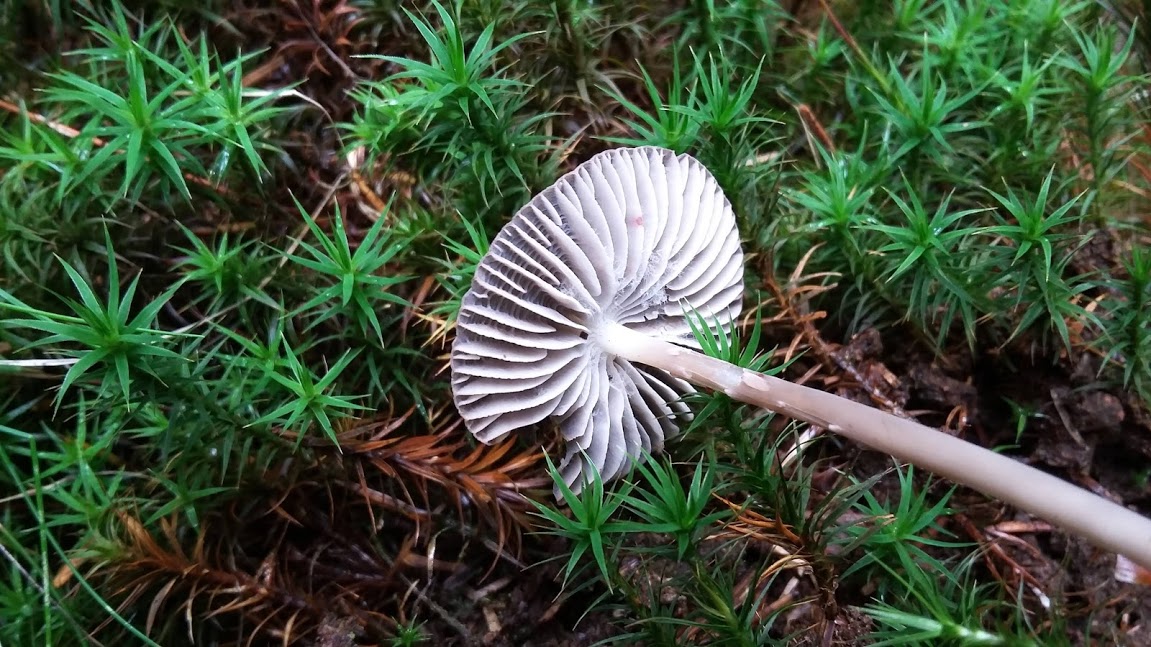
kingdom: Fungi
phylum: Basidiomycota
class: Agaricomycetes
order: Agaricales
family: Mycenaceae
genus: Mycena
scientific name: Mycena megaspora
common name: brusk-huesvamp
